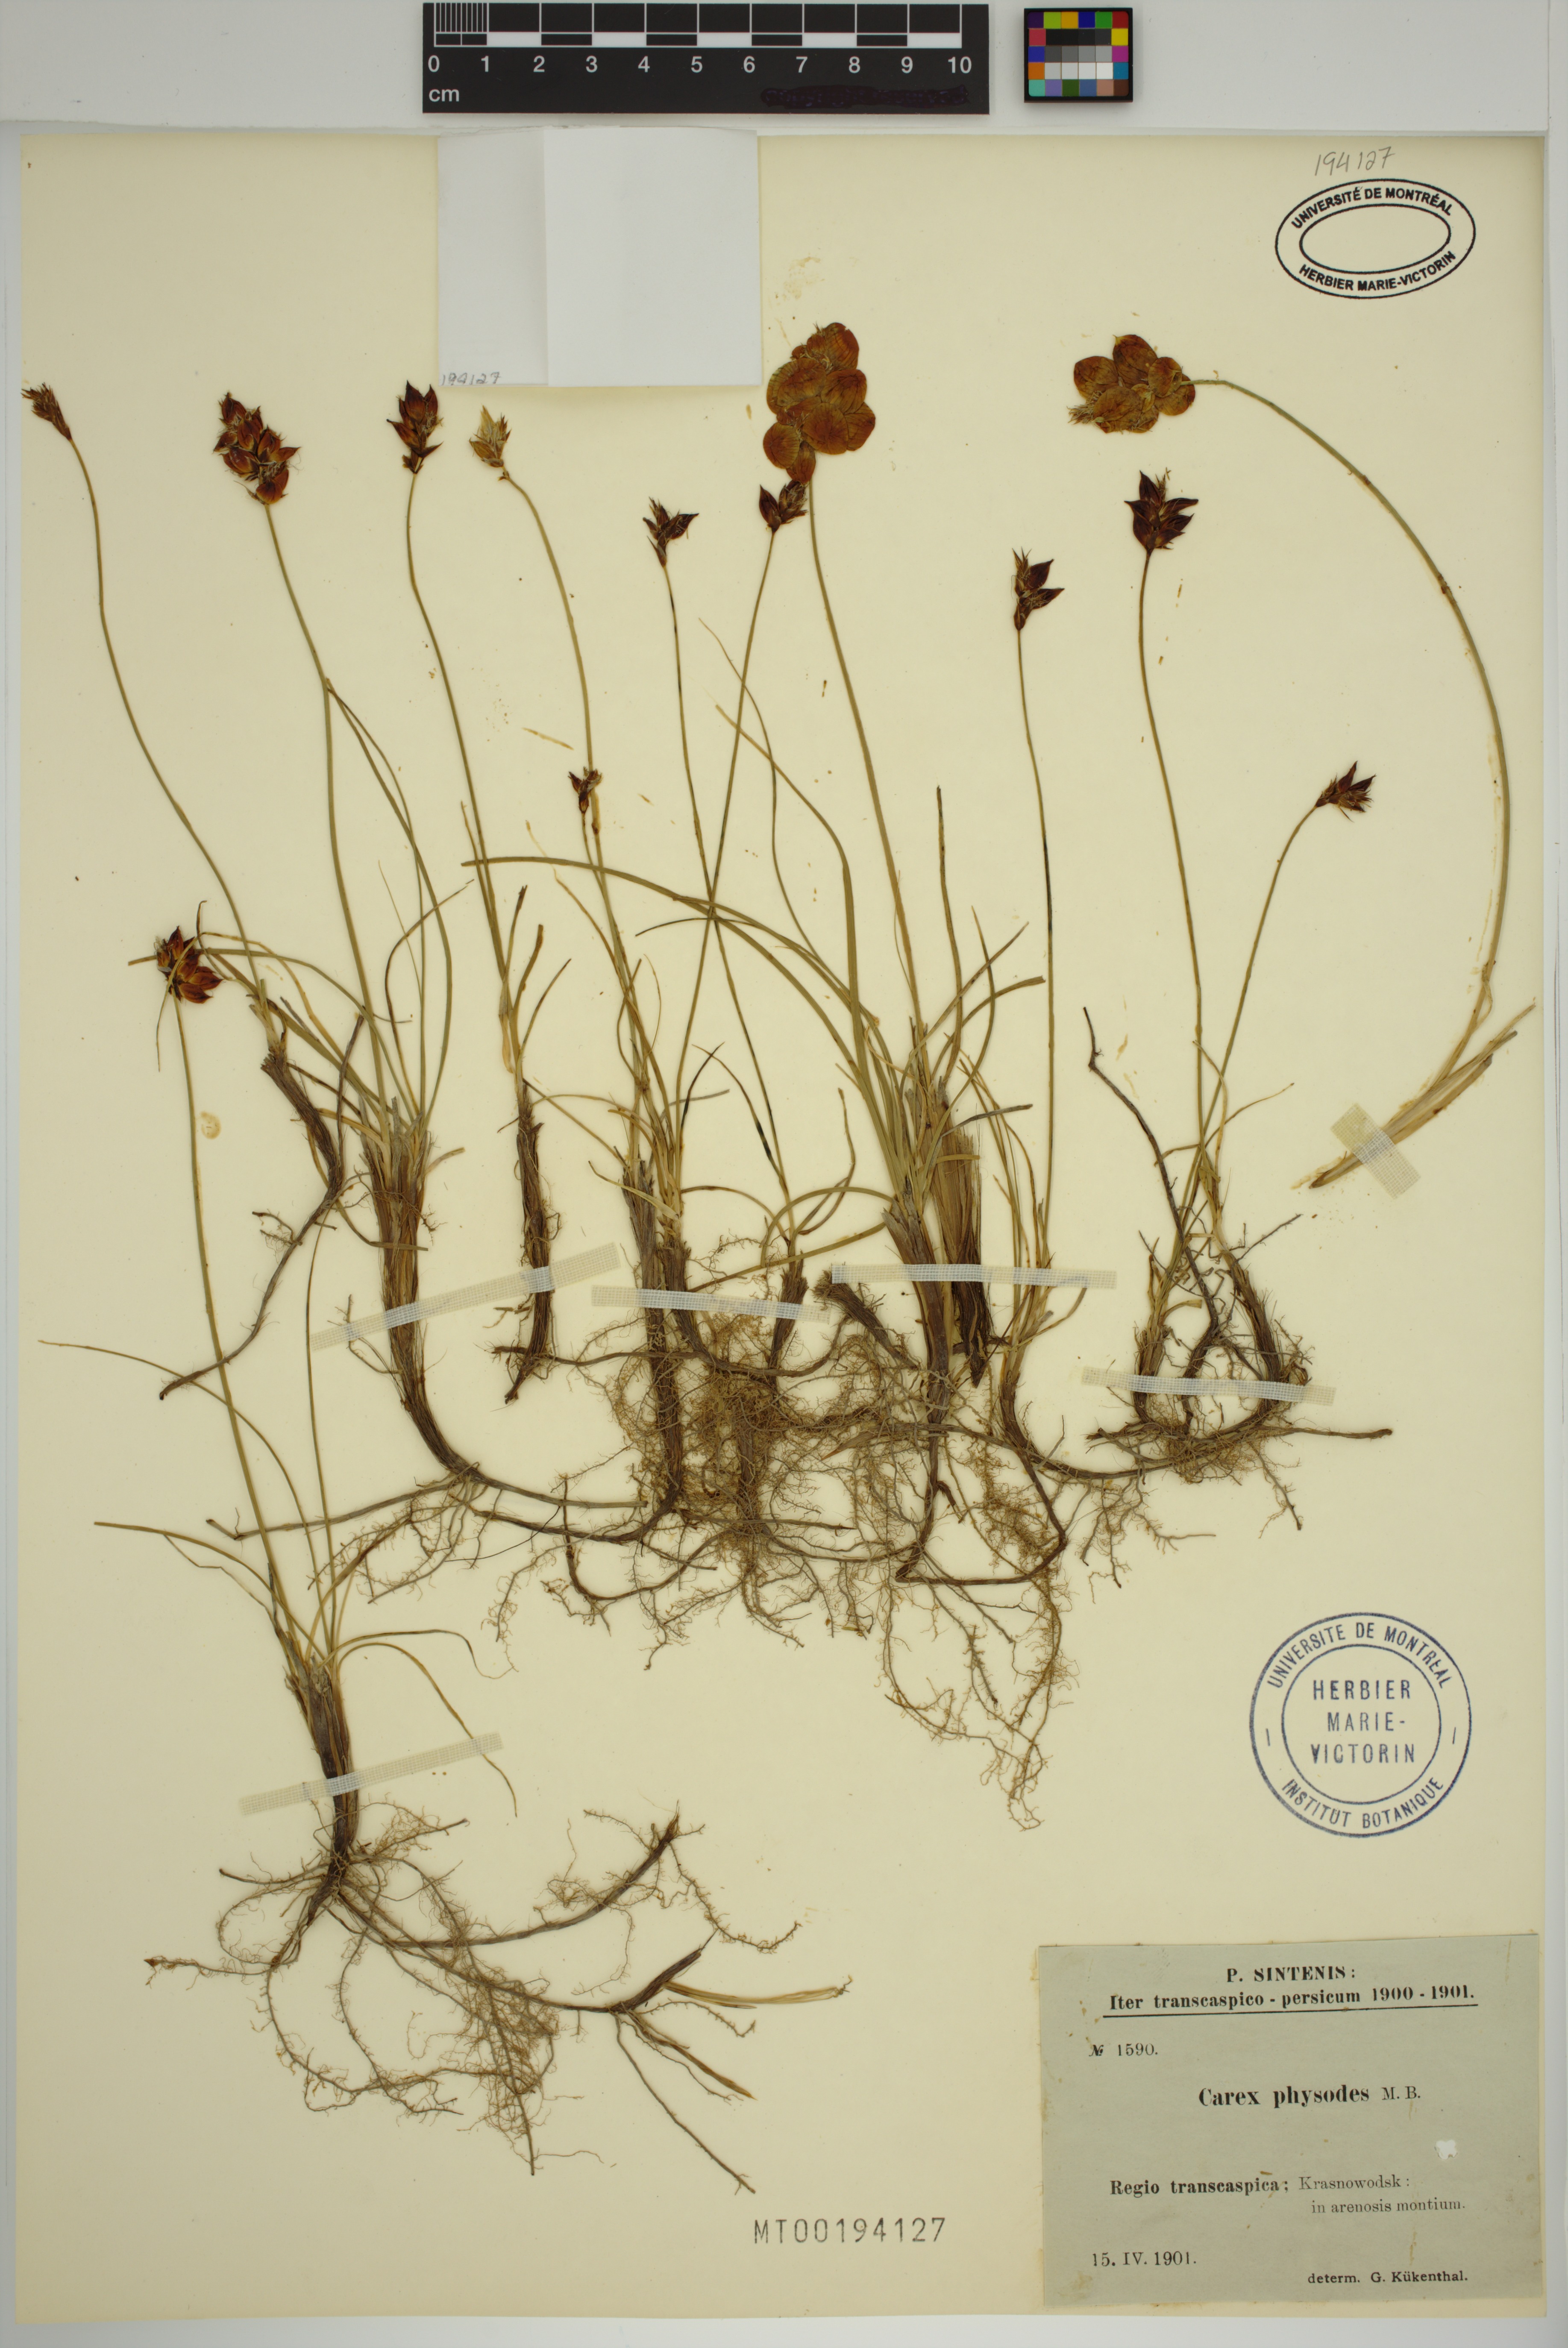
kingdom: Plantae
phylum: Tracheophyta
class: Liliopsida
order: Poales
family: Cyperaceae
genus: Carex
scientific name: Carex physodes
